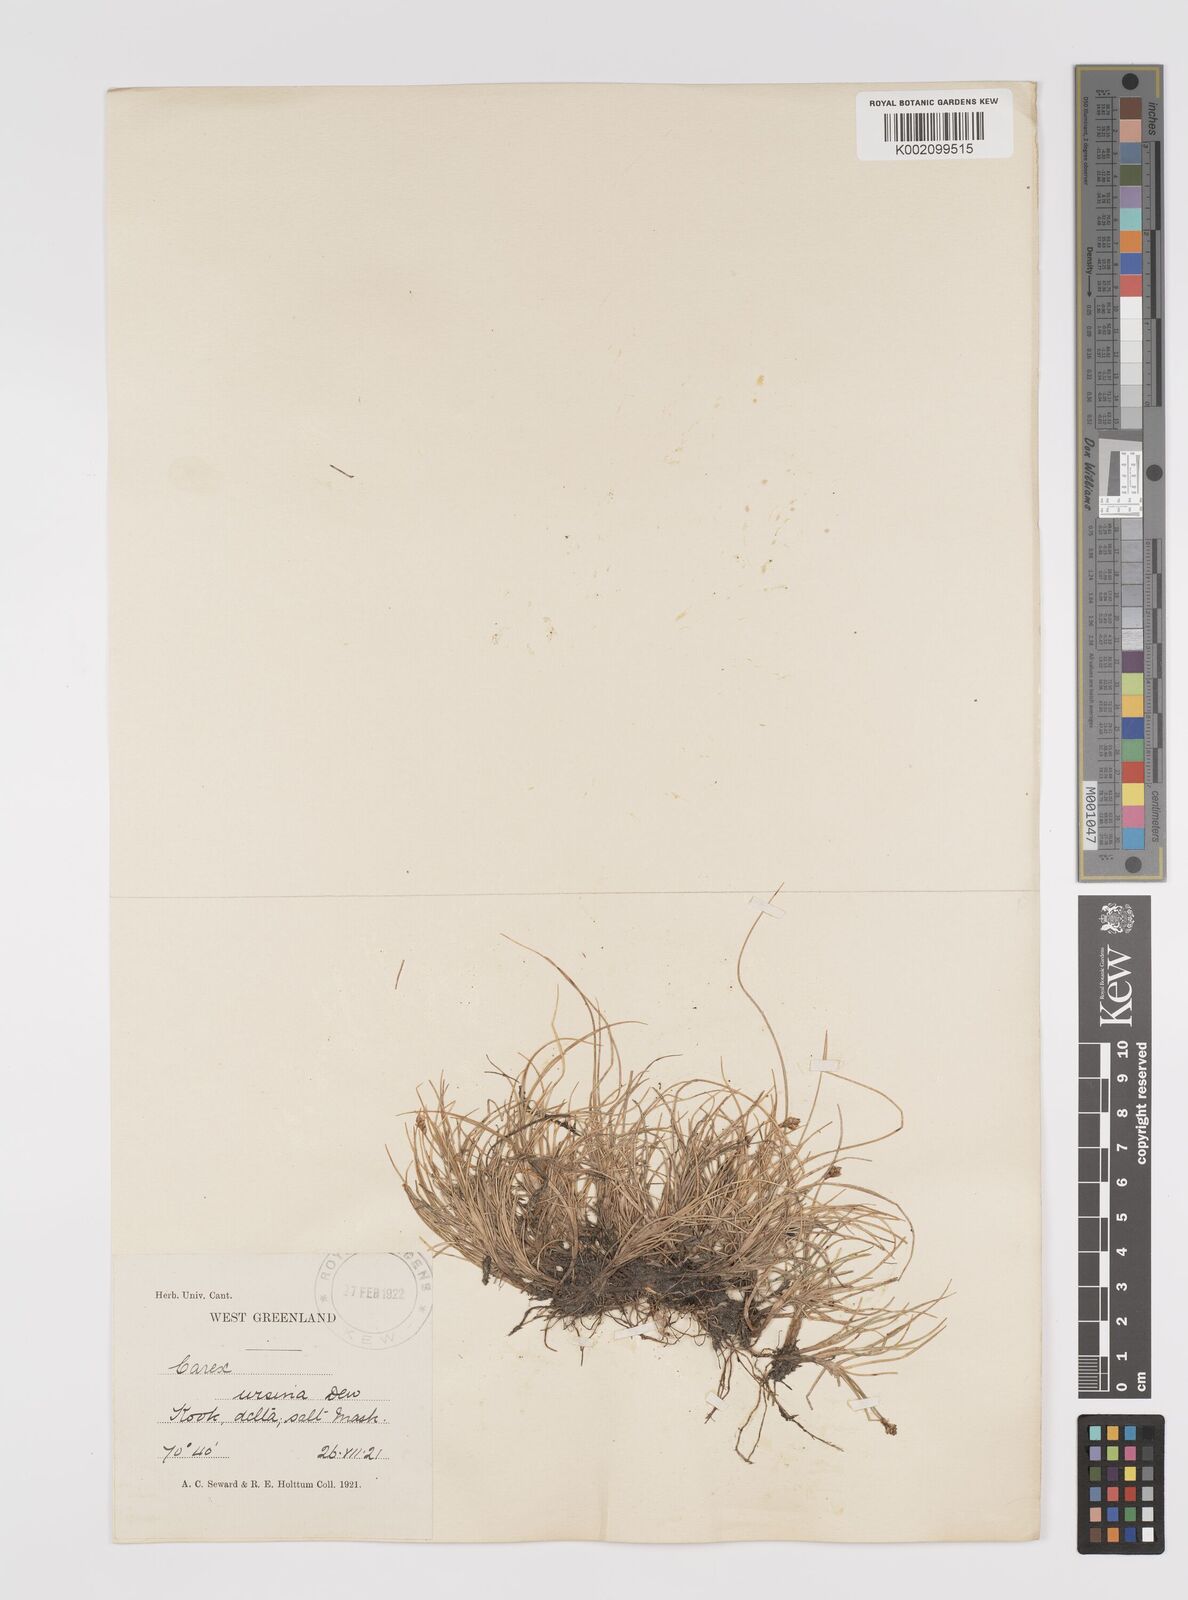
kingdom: Plantae
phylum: Tracheophyta
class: Liliopsida
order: Poales
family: Cyperaceae
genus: Carex
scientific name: Carex ursina
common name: Bear sedge
